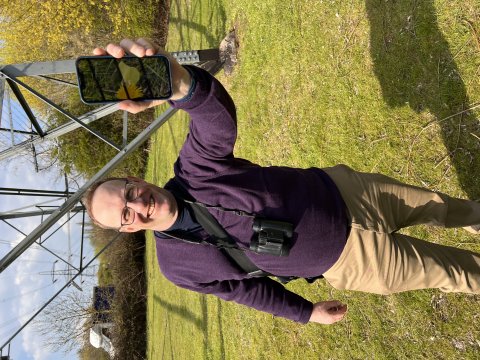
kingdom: Animalia
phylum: Arthropoda
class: Insecta
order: Lepidoptera
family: Pieridae
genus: Gonepteryx
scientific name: Gonepteryx rhamni
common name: Common Brimstone
